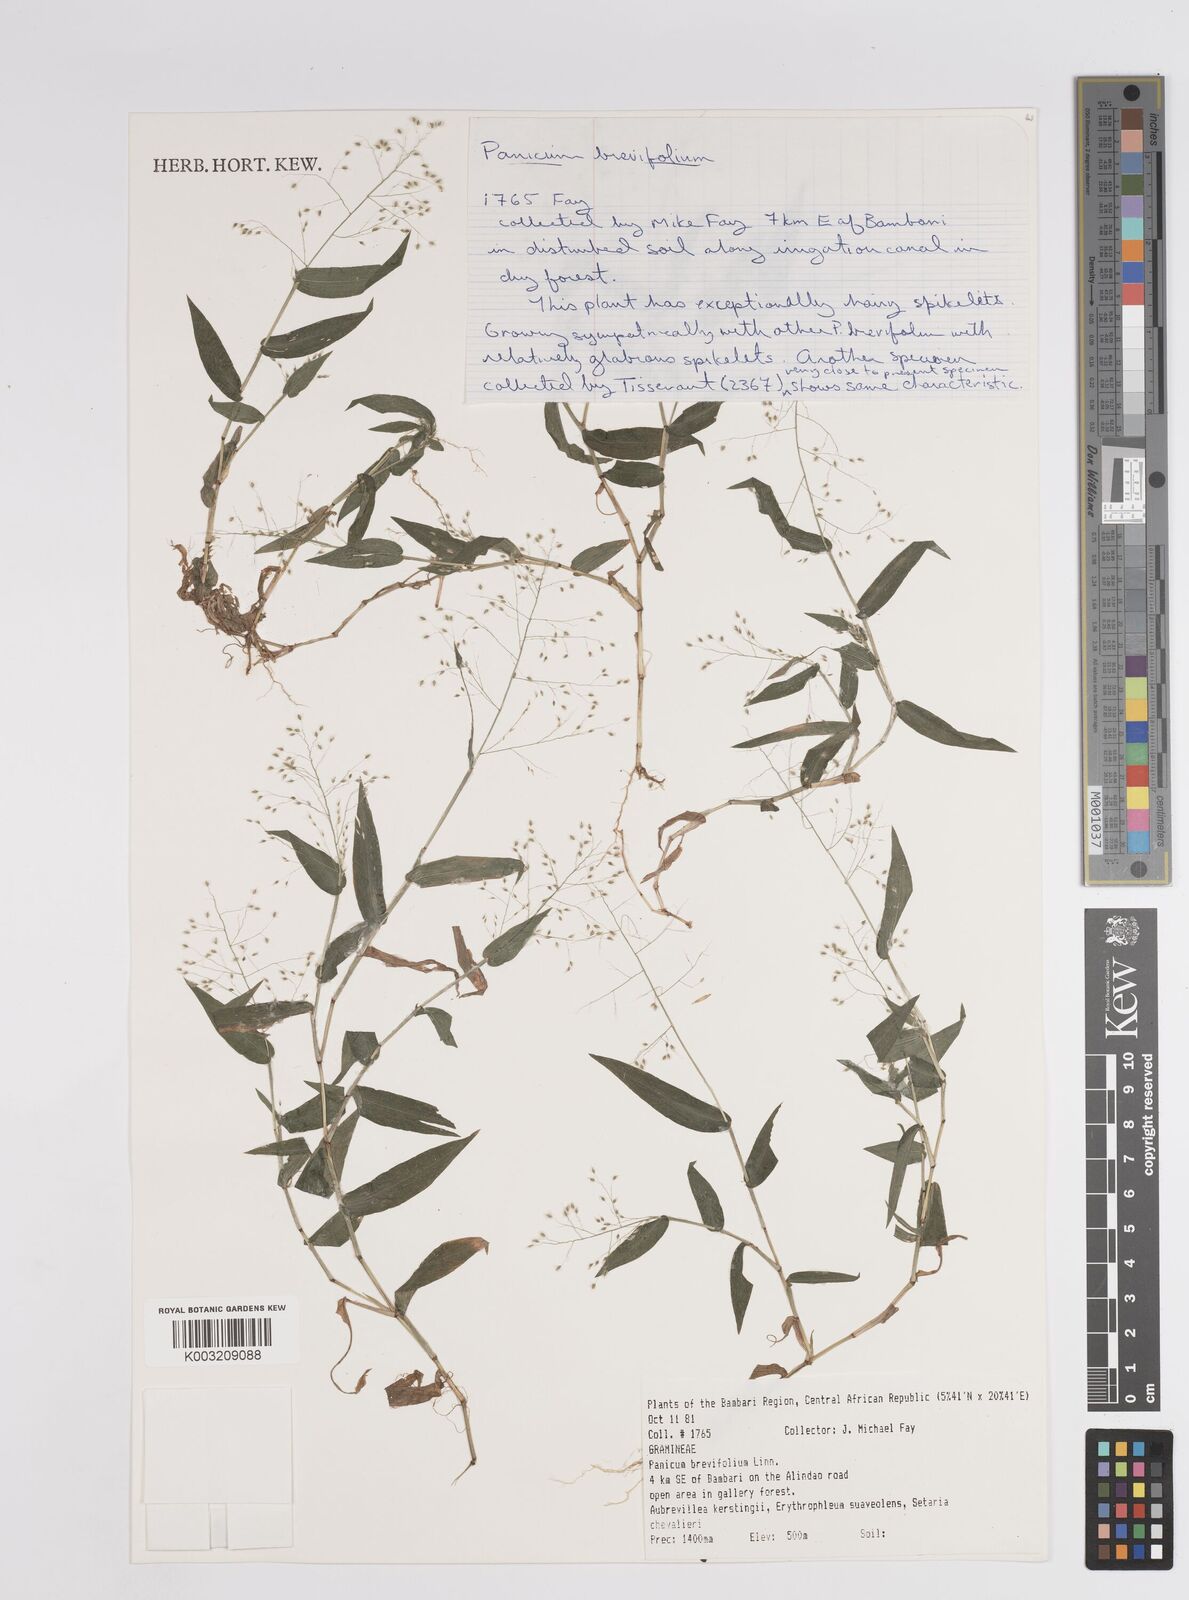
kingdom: Plantae
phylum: Tracheophyta
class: Liliopsida
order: Poales
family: Poaceae
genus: Panicum
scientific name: Panicum brevifolium
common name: Shortleaf panic grass
